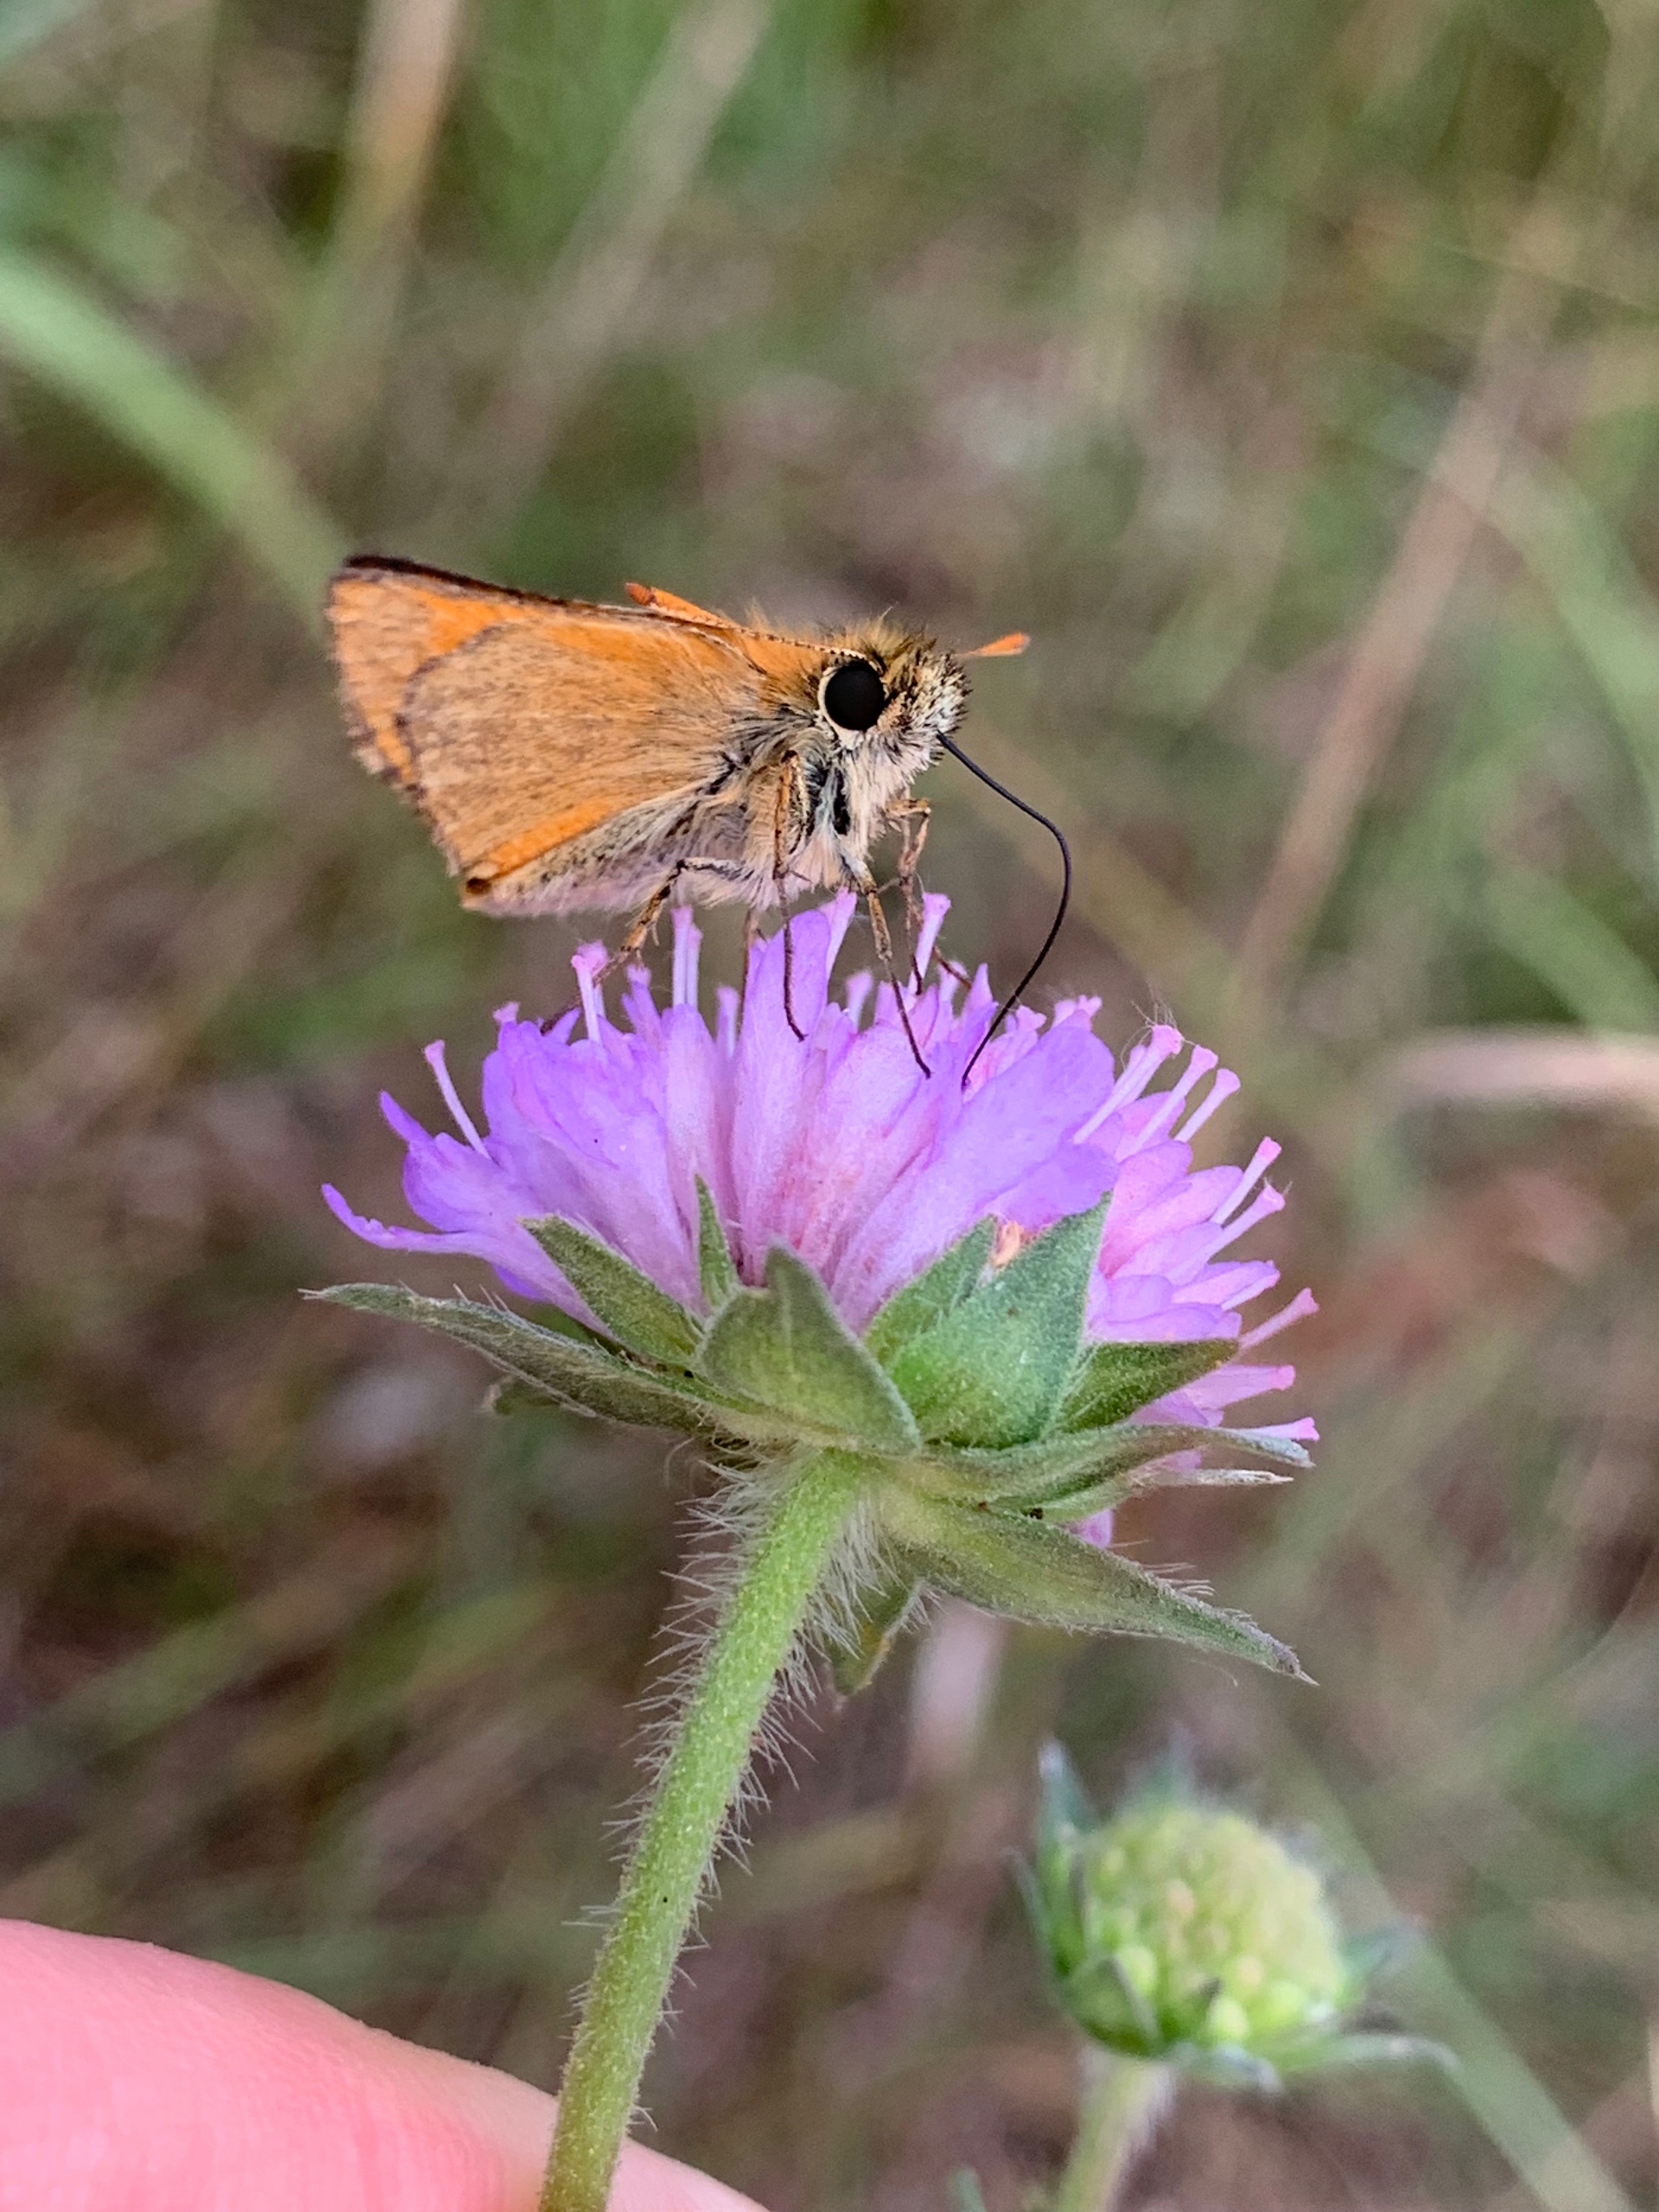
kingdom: Animalia
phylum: Arthropoda
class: Insecta
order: Lepidoptera
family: Hesperiidae
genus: Thymelicus
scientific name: Thymelicus sylvestris
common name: Skråstregbredpande
